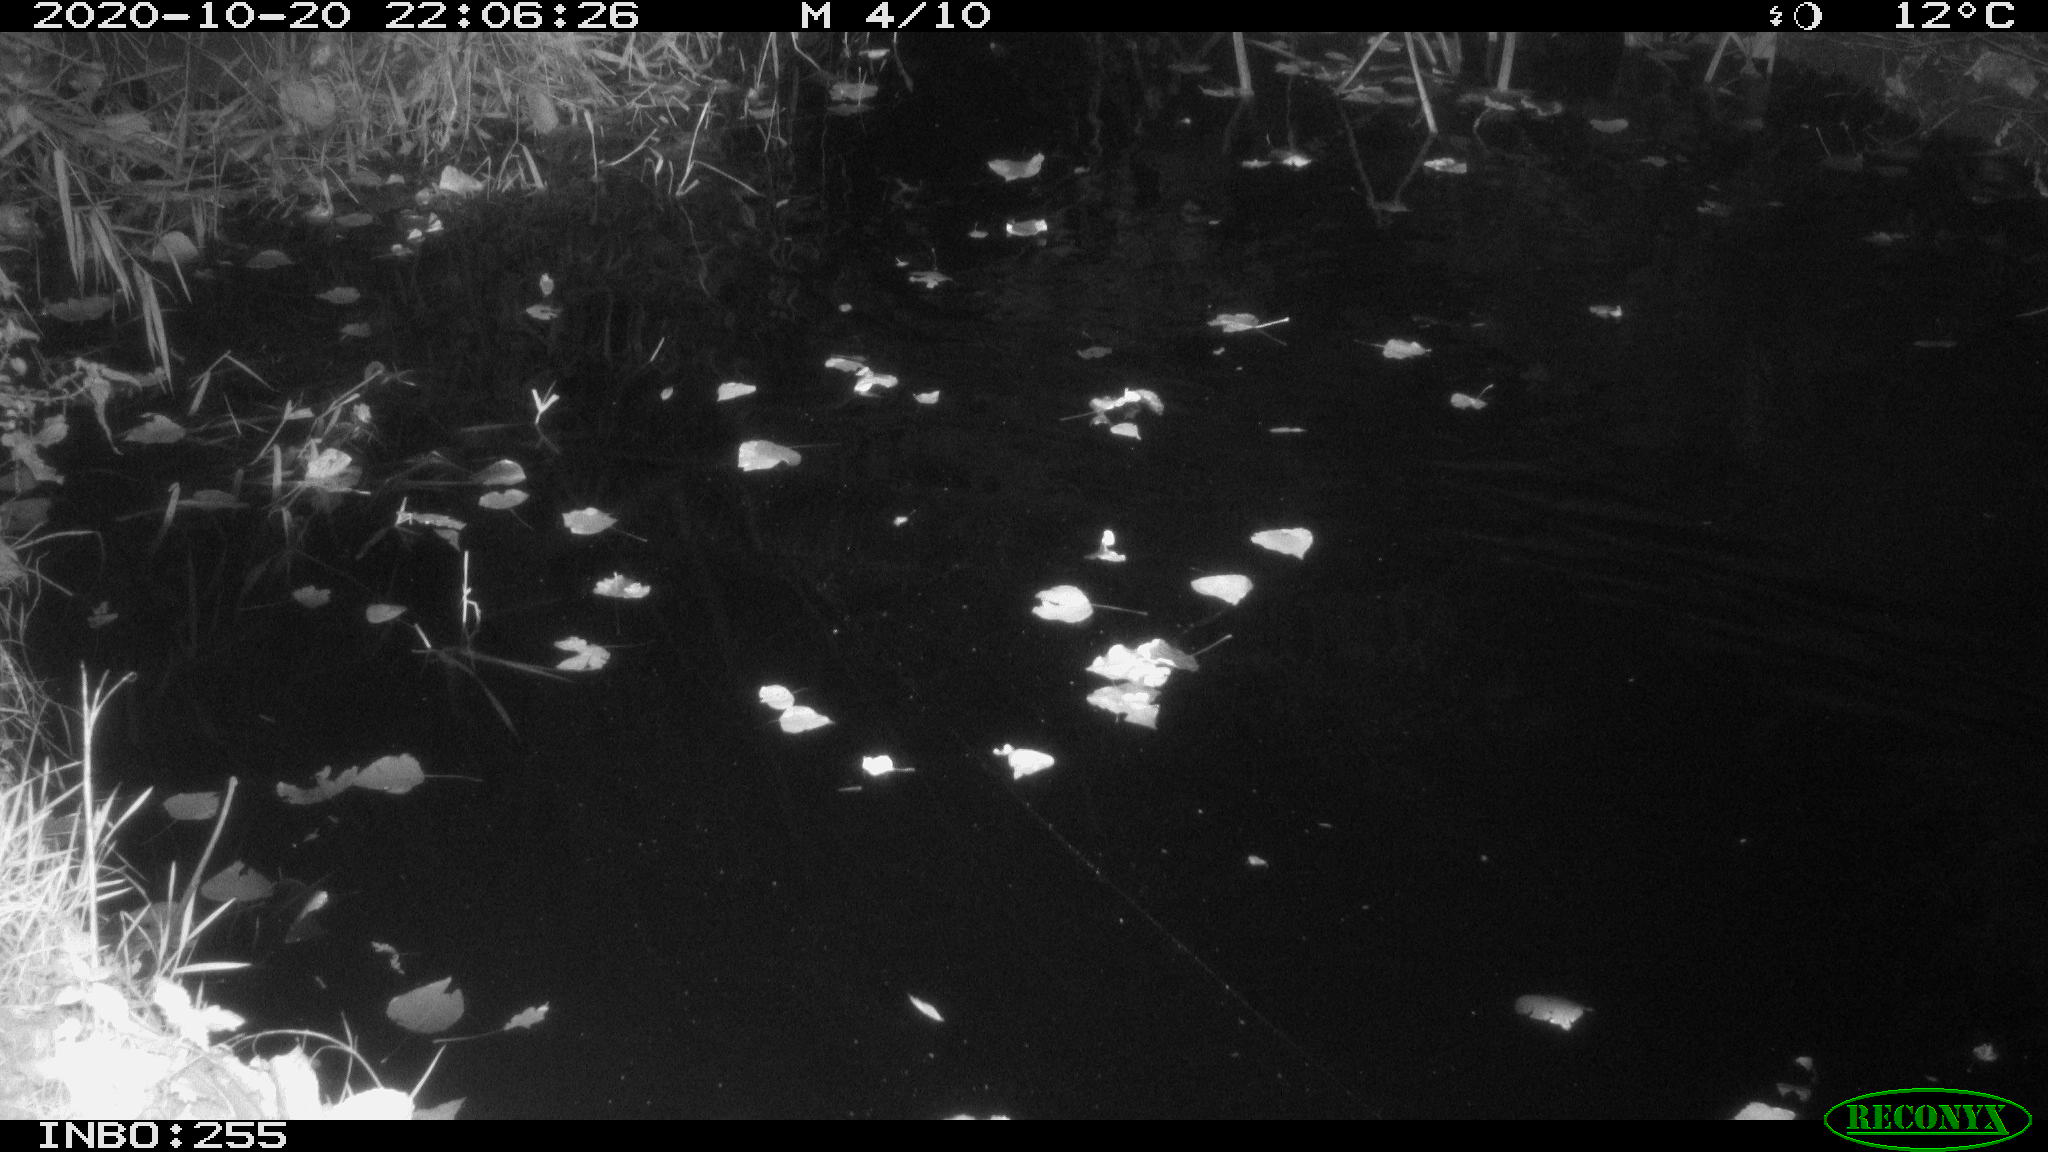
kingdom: Animalia
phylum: Chordata
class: Aves
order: Anseriformes
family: Anatidae
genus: Anas
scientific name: Anas platyrhynchos
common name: Mallard
